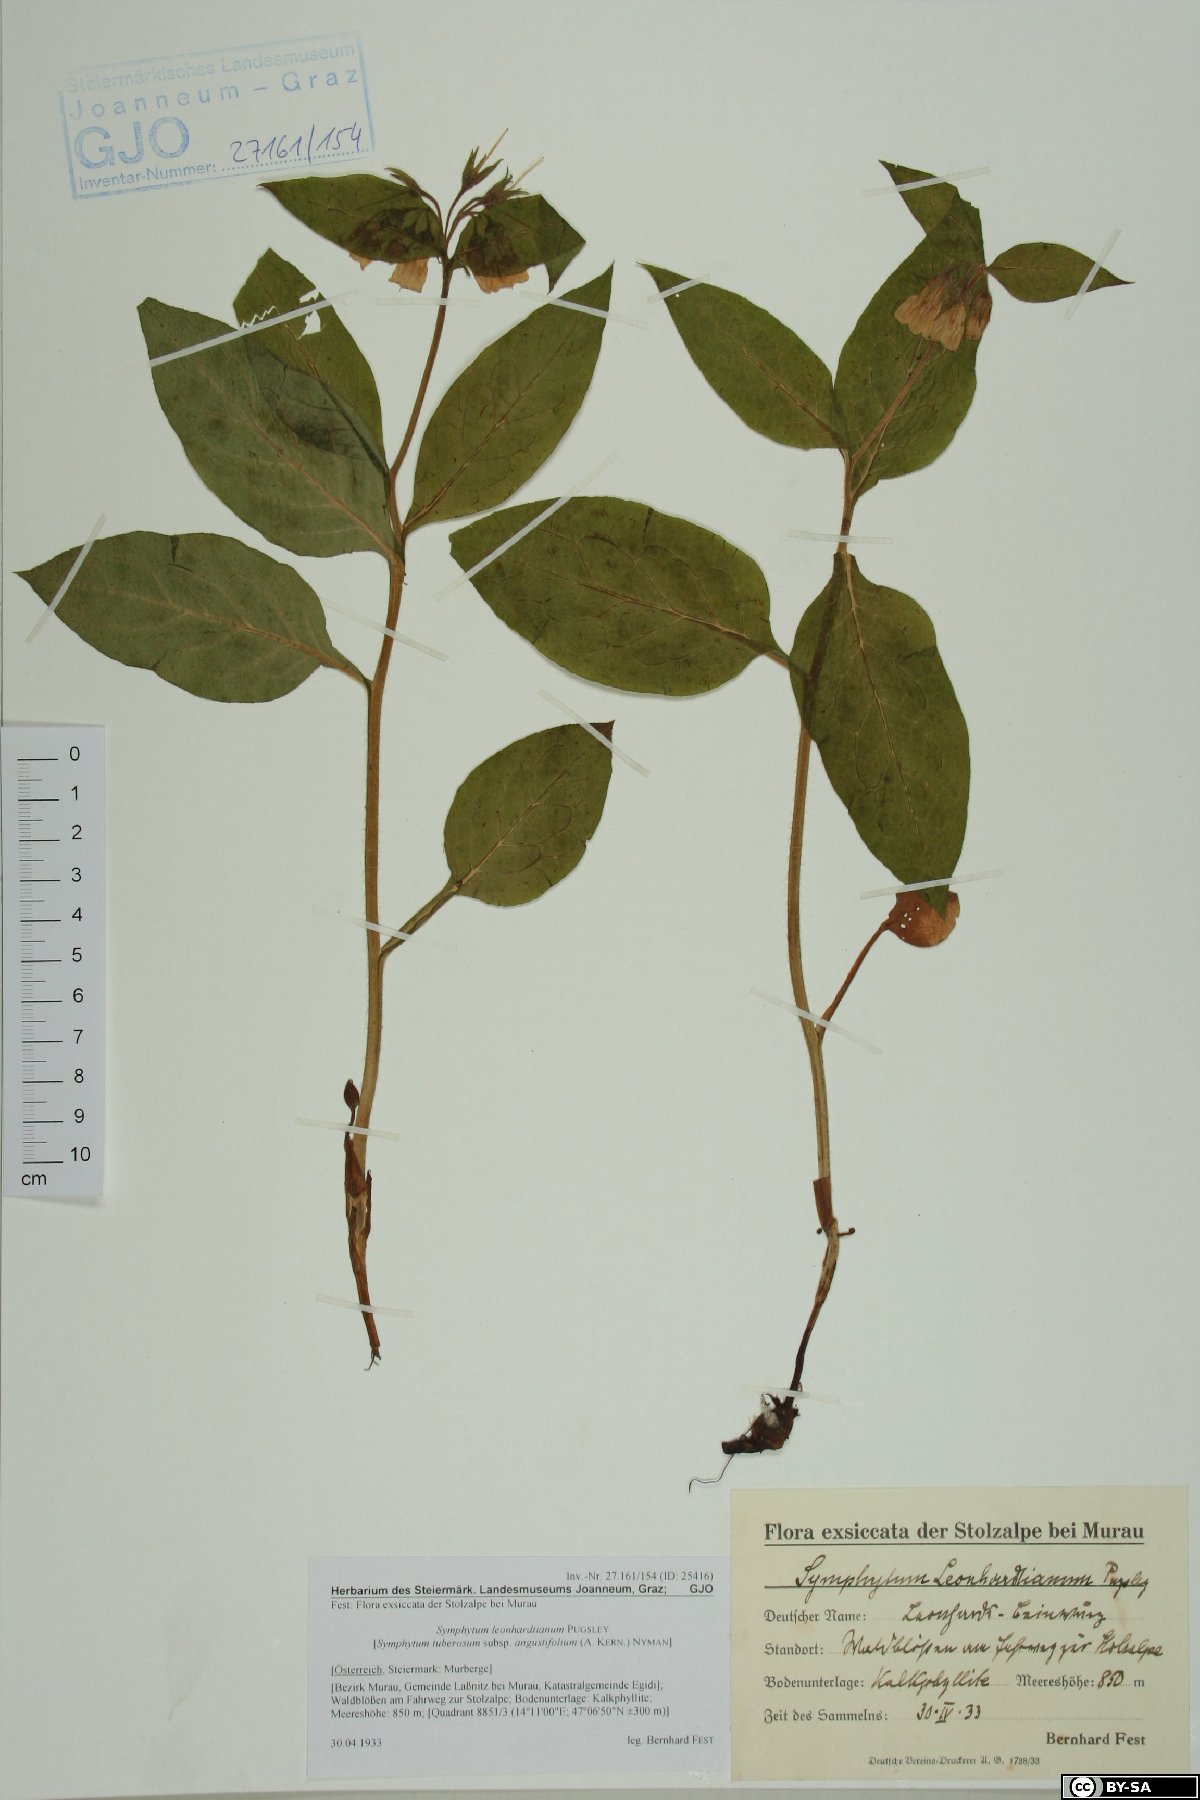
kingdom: Plantae
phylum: Tracheophyta
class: Magnoliopsida
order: Boraginales
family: Boraginaceae
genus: Symphytum
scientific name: Symphytum tuberosum
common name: Tuberous comfrey
